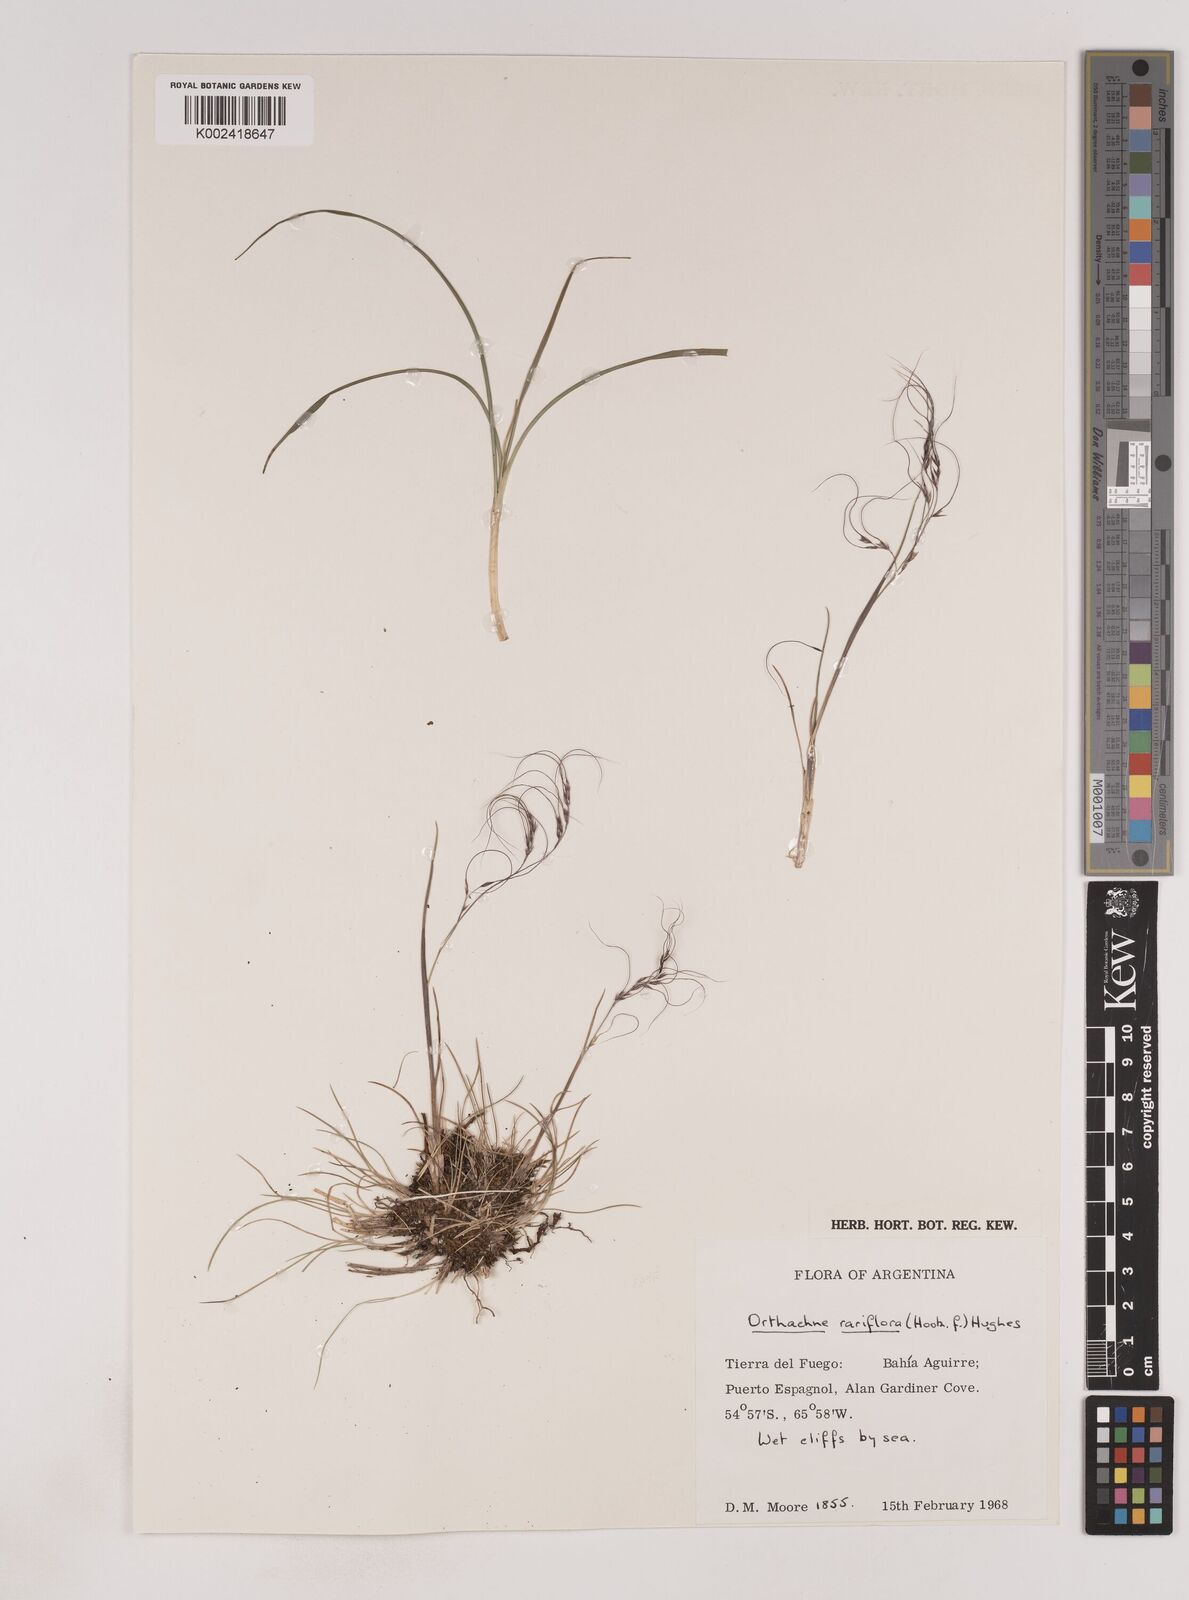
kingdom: Plantae
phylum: Tracheophyta
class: Liliopsida
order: Poales
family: Poaceae
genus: Ortachne
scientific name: Ortachne rariflora
